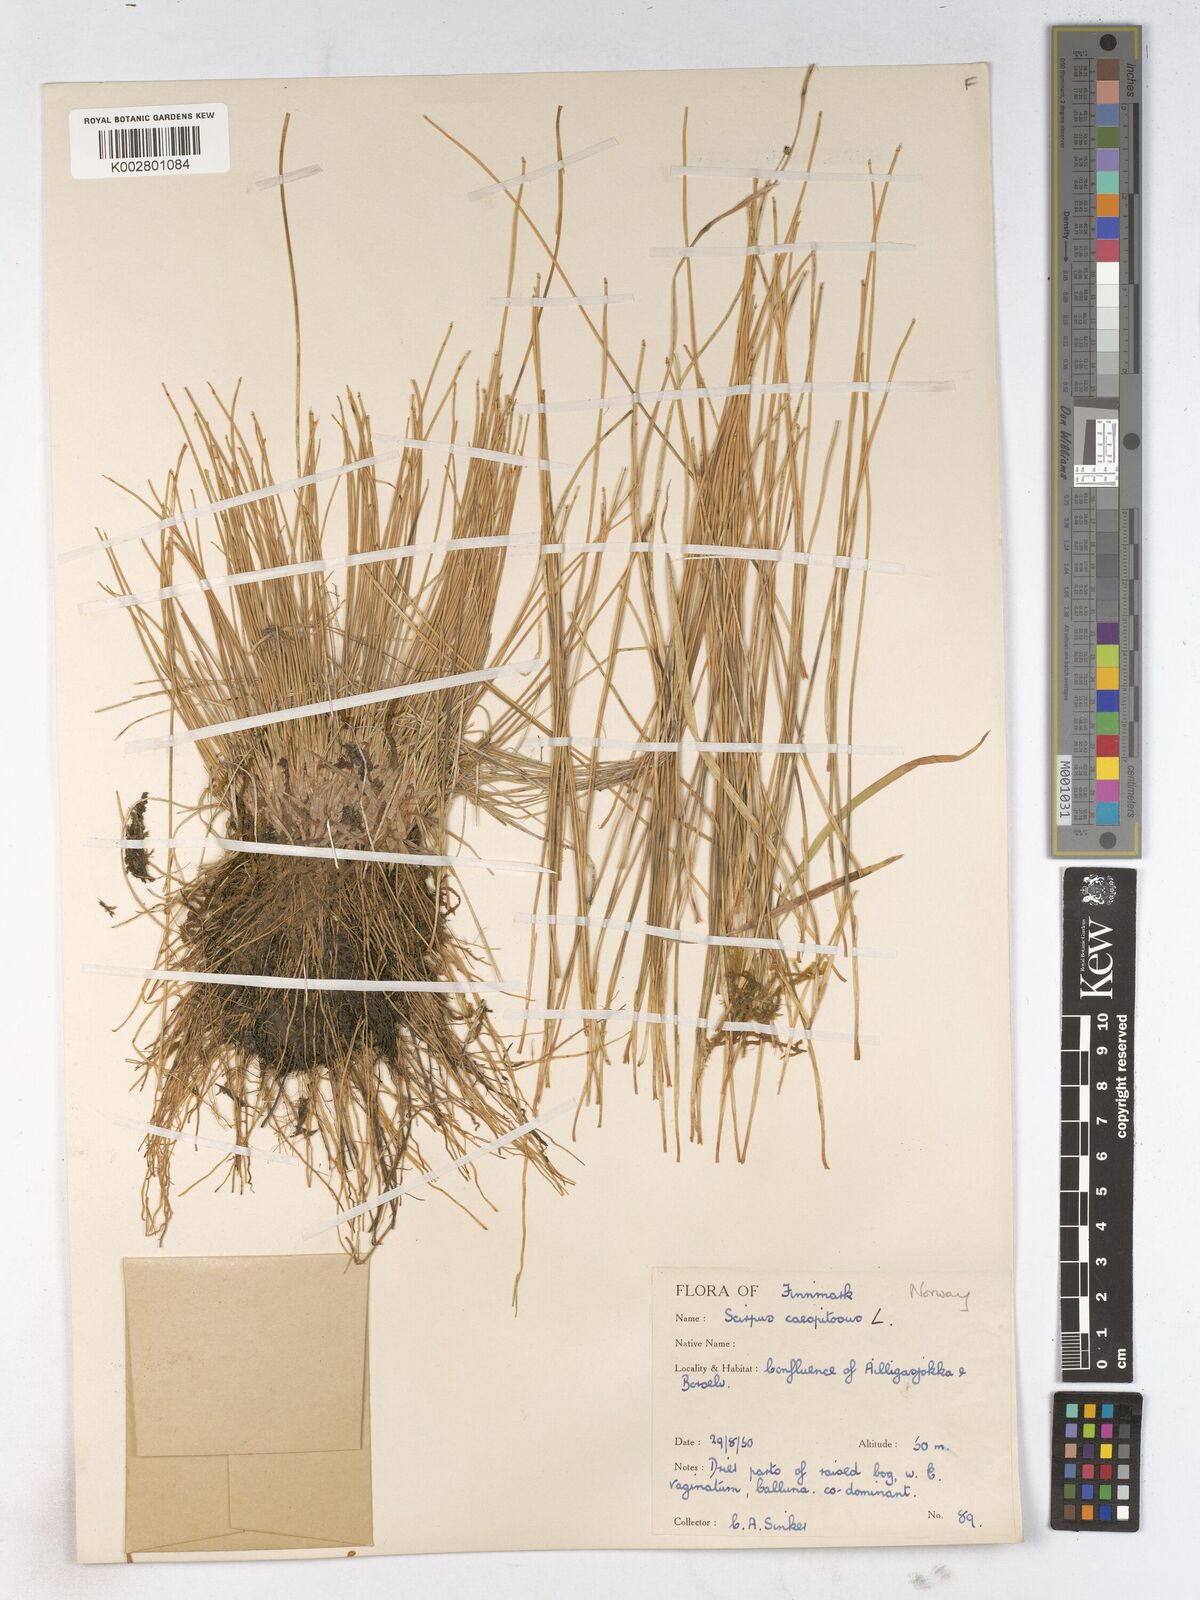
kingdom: Plantae
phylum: Tracheophyta
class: Liliopsida
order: Poales
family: Cyperaceae
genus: Trichophorum
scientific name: Trichophorum cespitosum
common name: Cespitose bulrush
